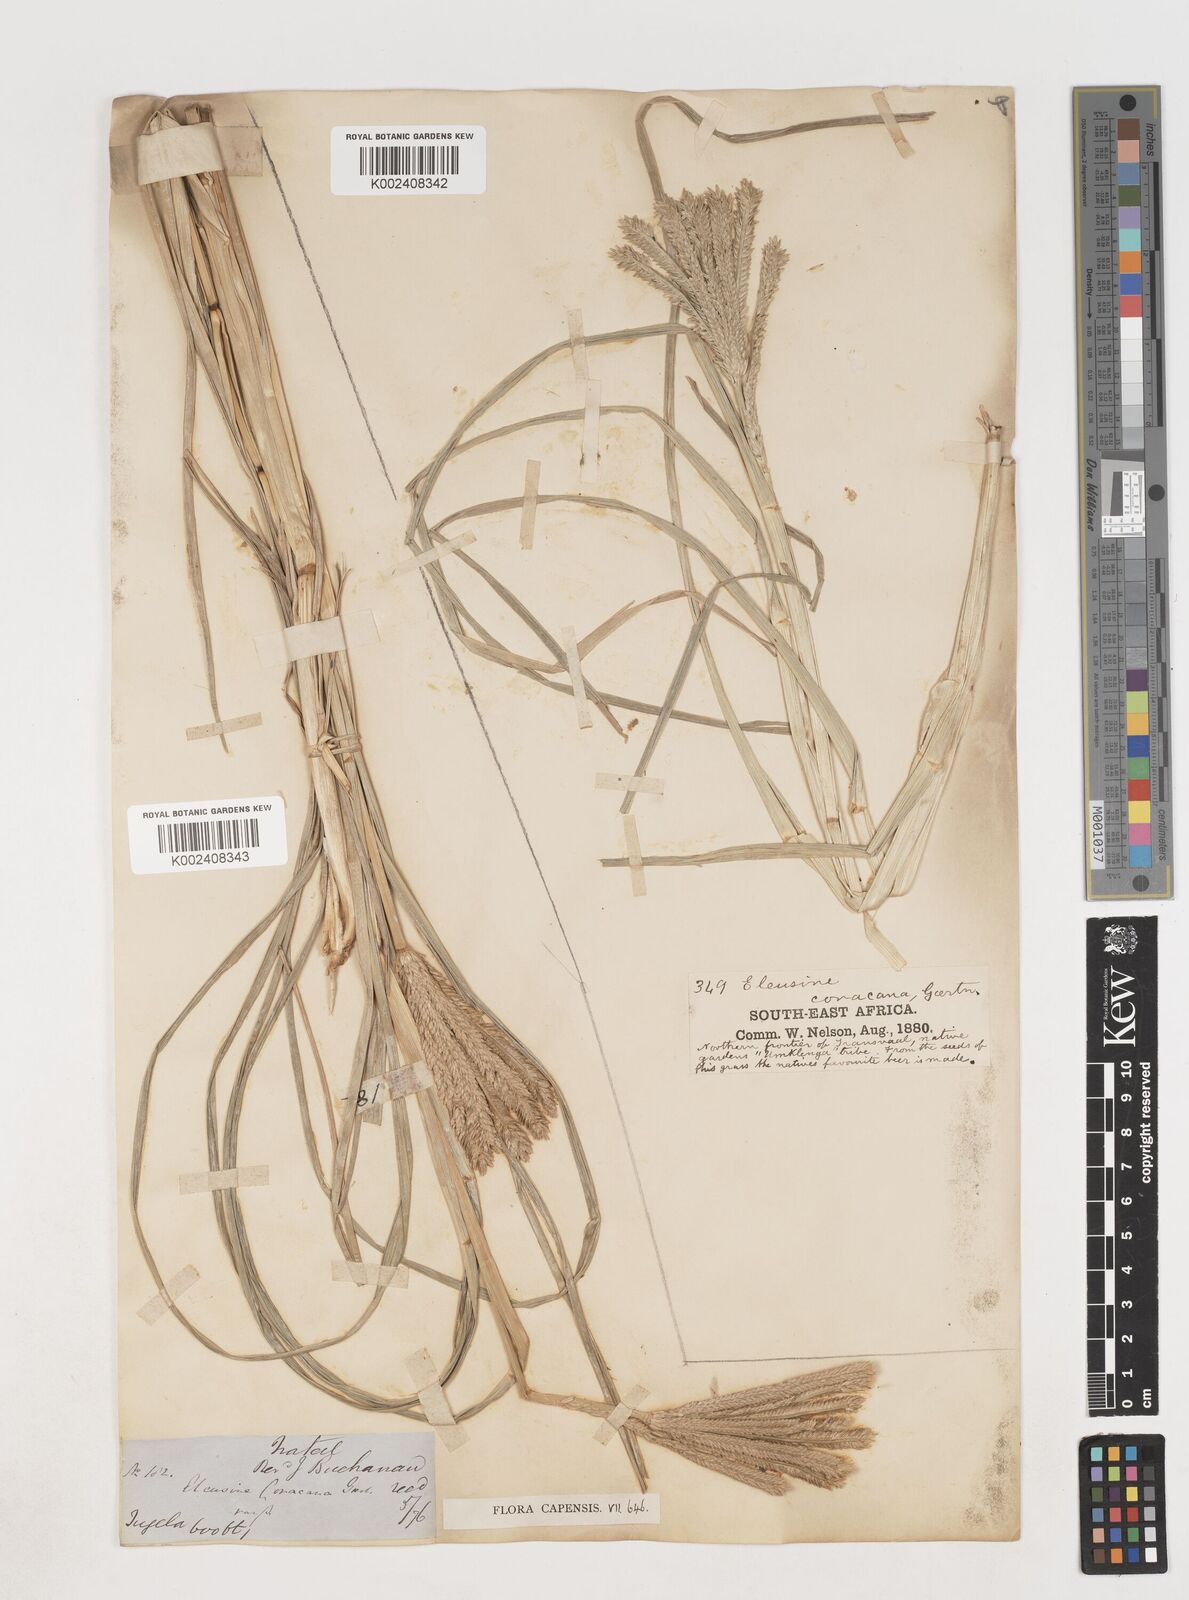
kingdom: Plantae
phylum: Tracheophyta
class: Liliopsida
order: Poales
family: Poaceae
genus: Eleusine
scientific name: Eleusine coracana
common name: Finger millet
